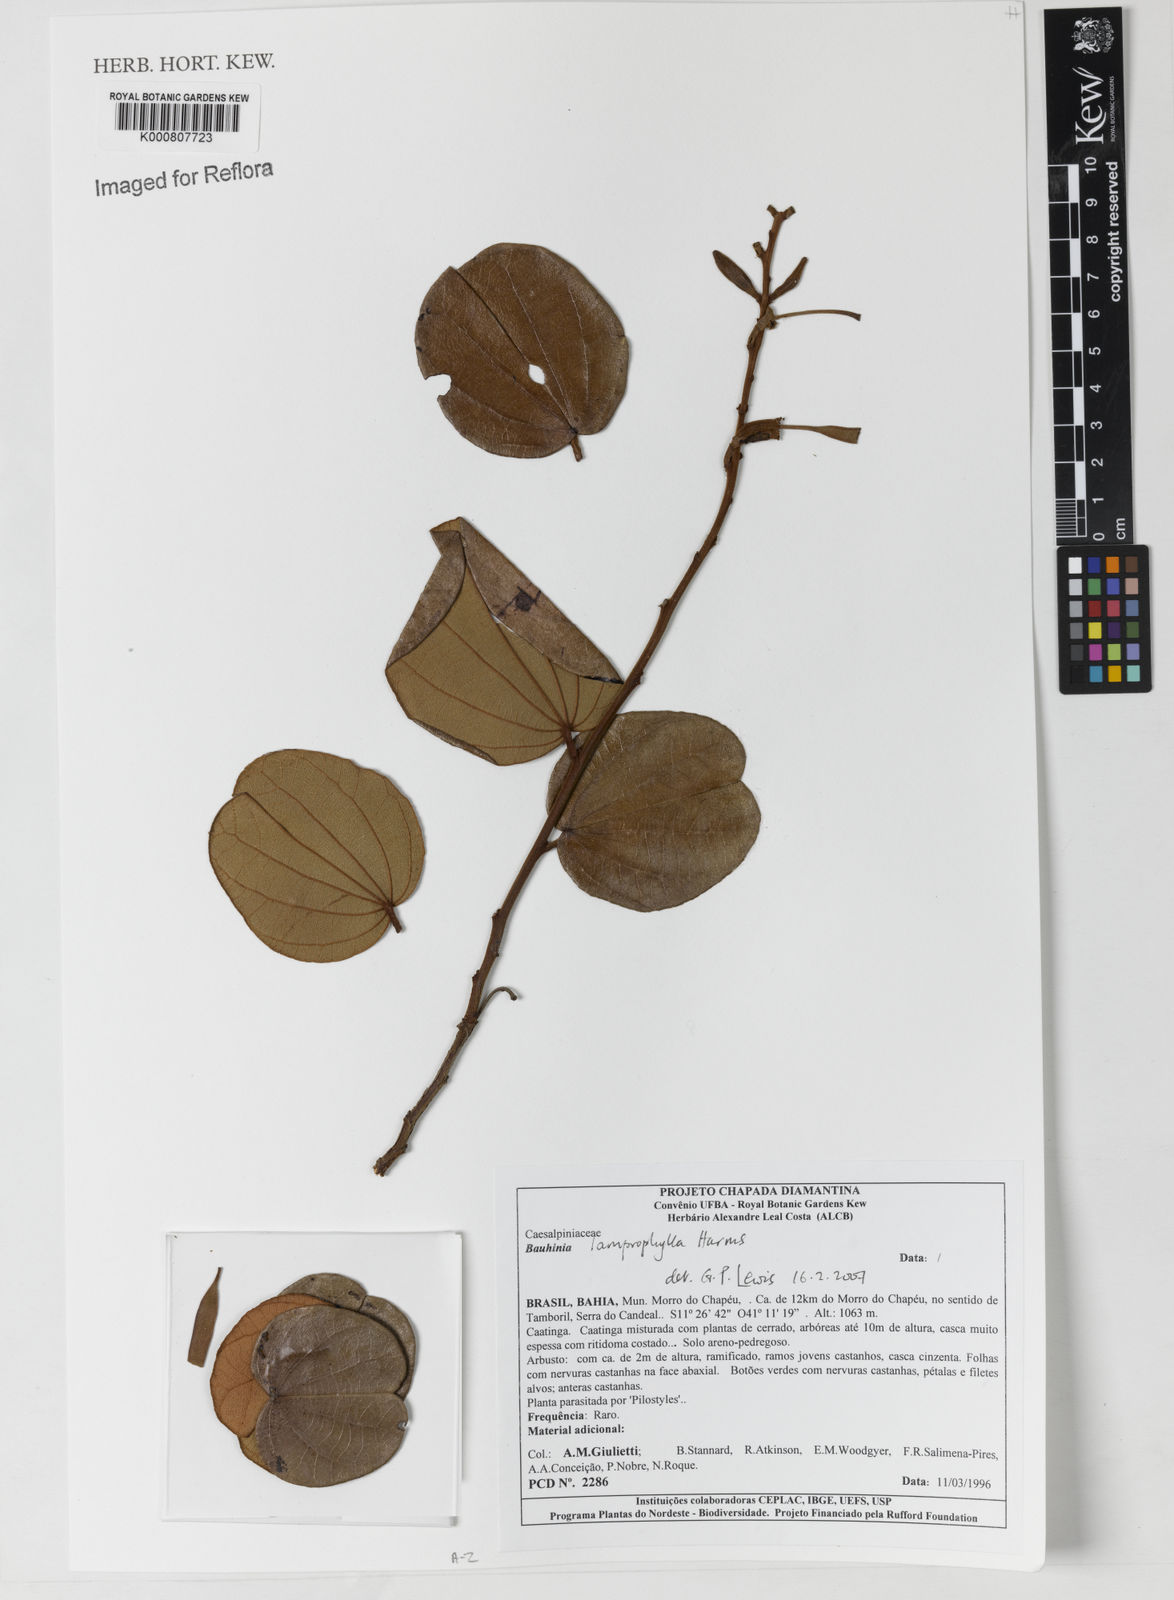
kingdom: Plantae
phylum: Tracheophyta
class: Magnoliopsida
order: Fabales
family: Fabaceae
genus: Bauhinia
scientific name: Bauhinia acuruana
